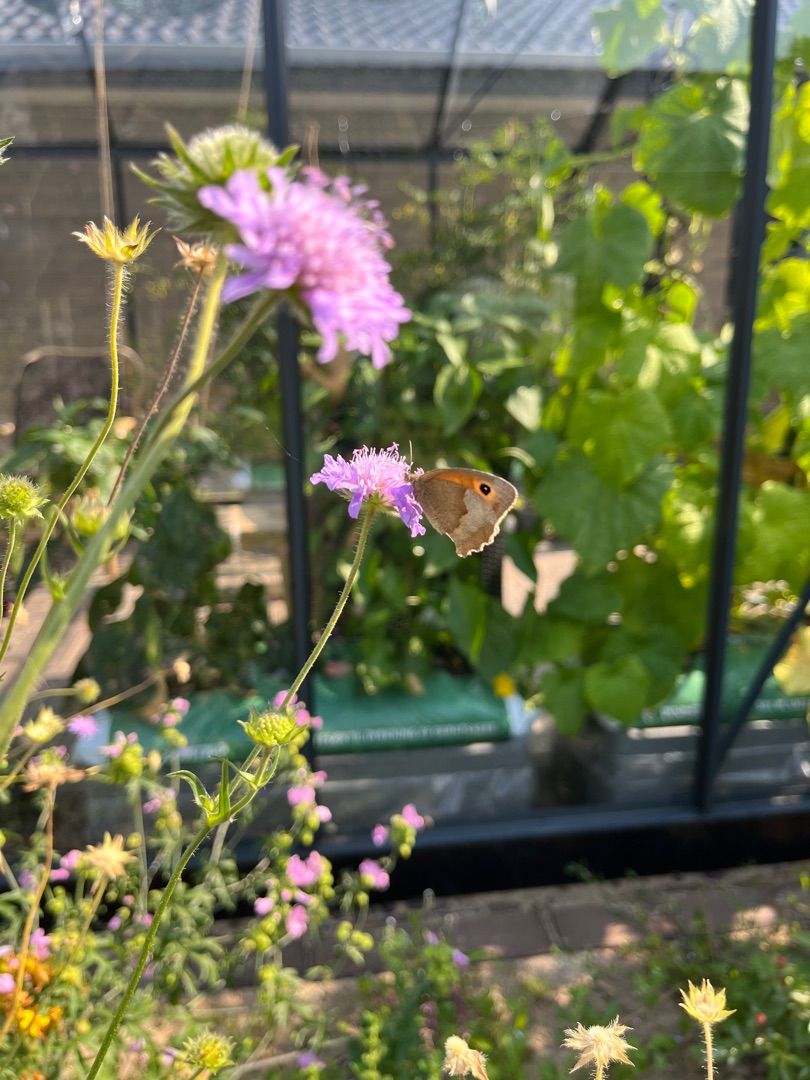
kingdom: Animalia
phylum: Arthropoda
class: Insecta
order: Lepidoptera
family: Nymphalidae
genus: Maniola
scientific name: Maniola jurtina
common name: Græsrandøje
